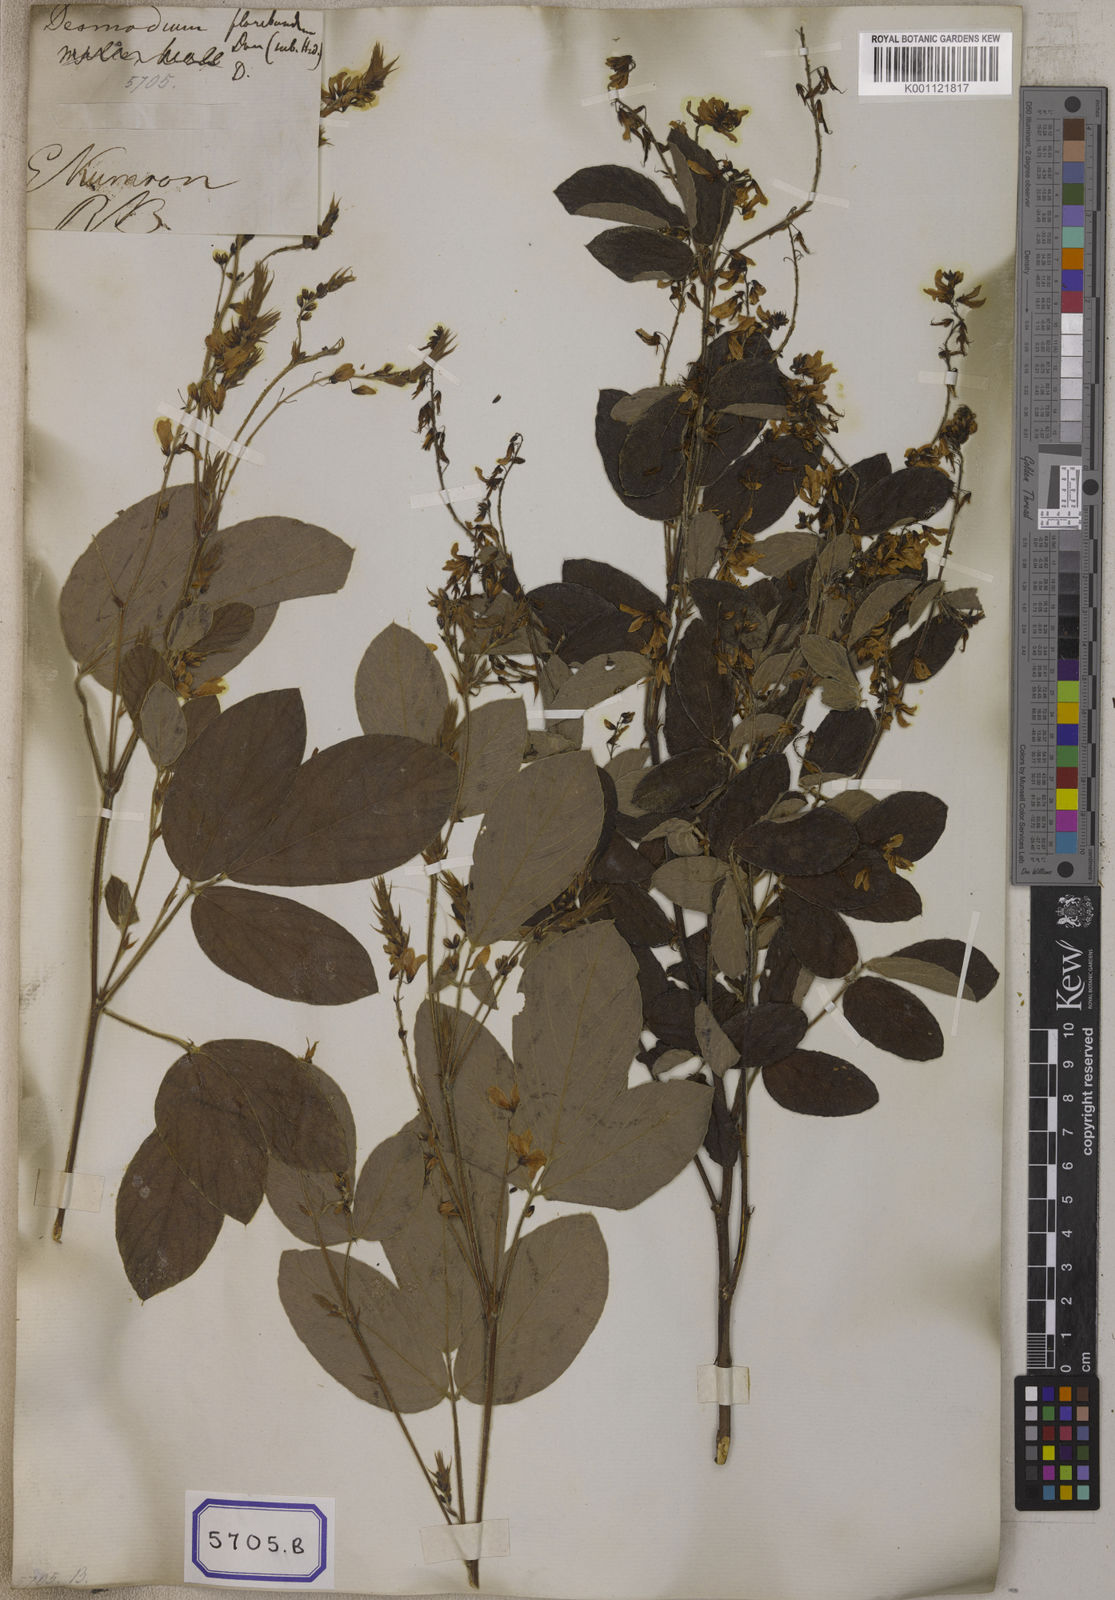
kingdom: Plantae
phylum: Tracheophyta
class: Magnoliopsida
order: Fabales
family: Fabaceae
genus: Ototropis
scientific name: Ototropis multiflora
